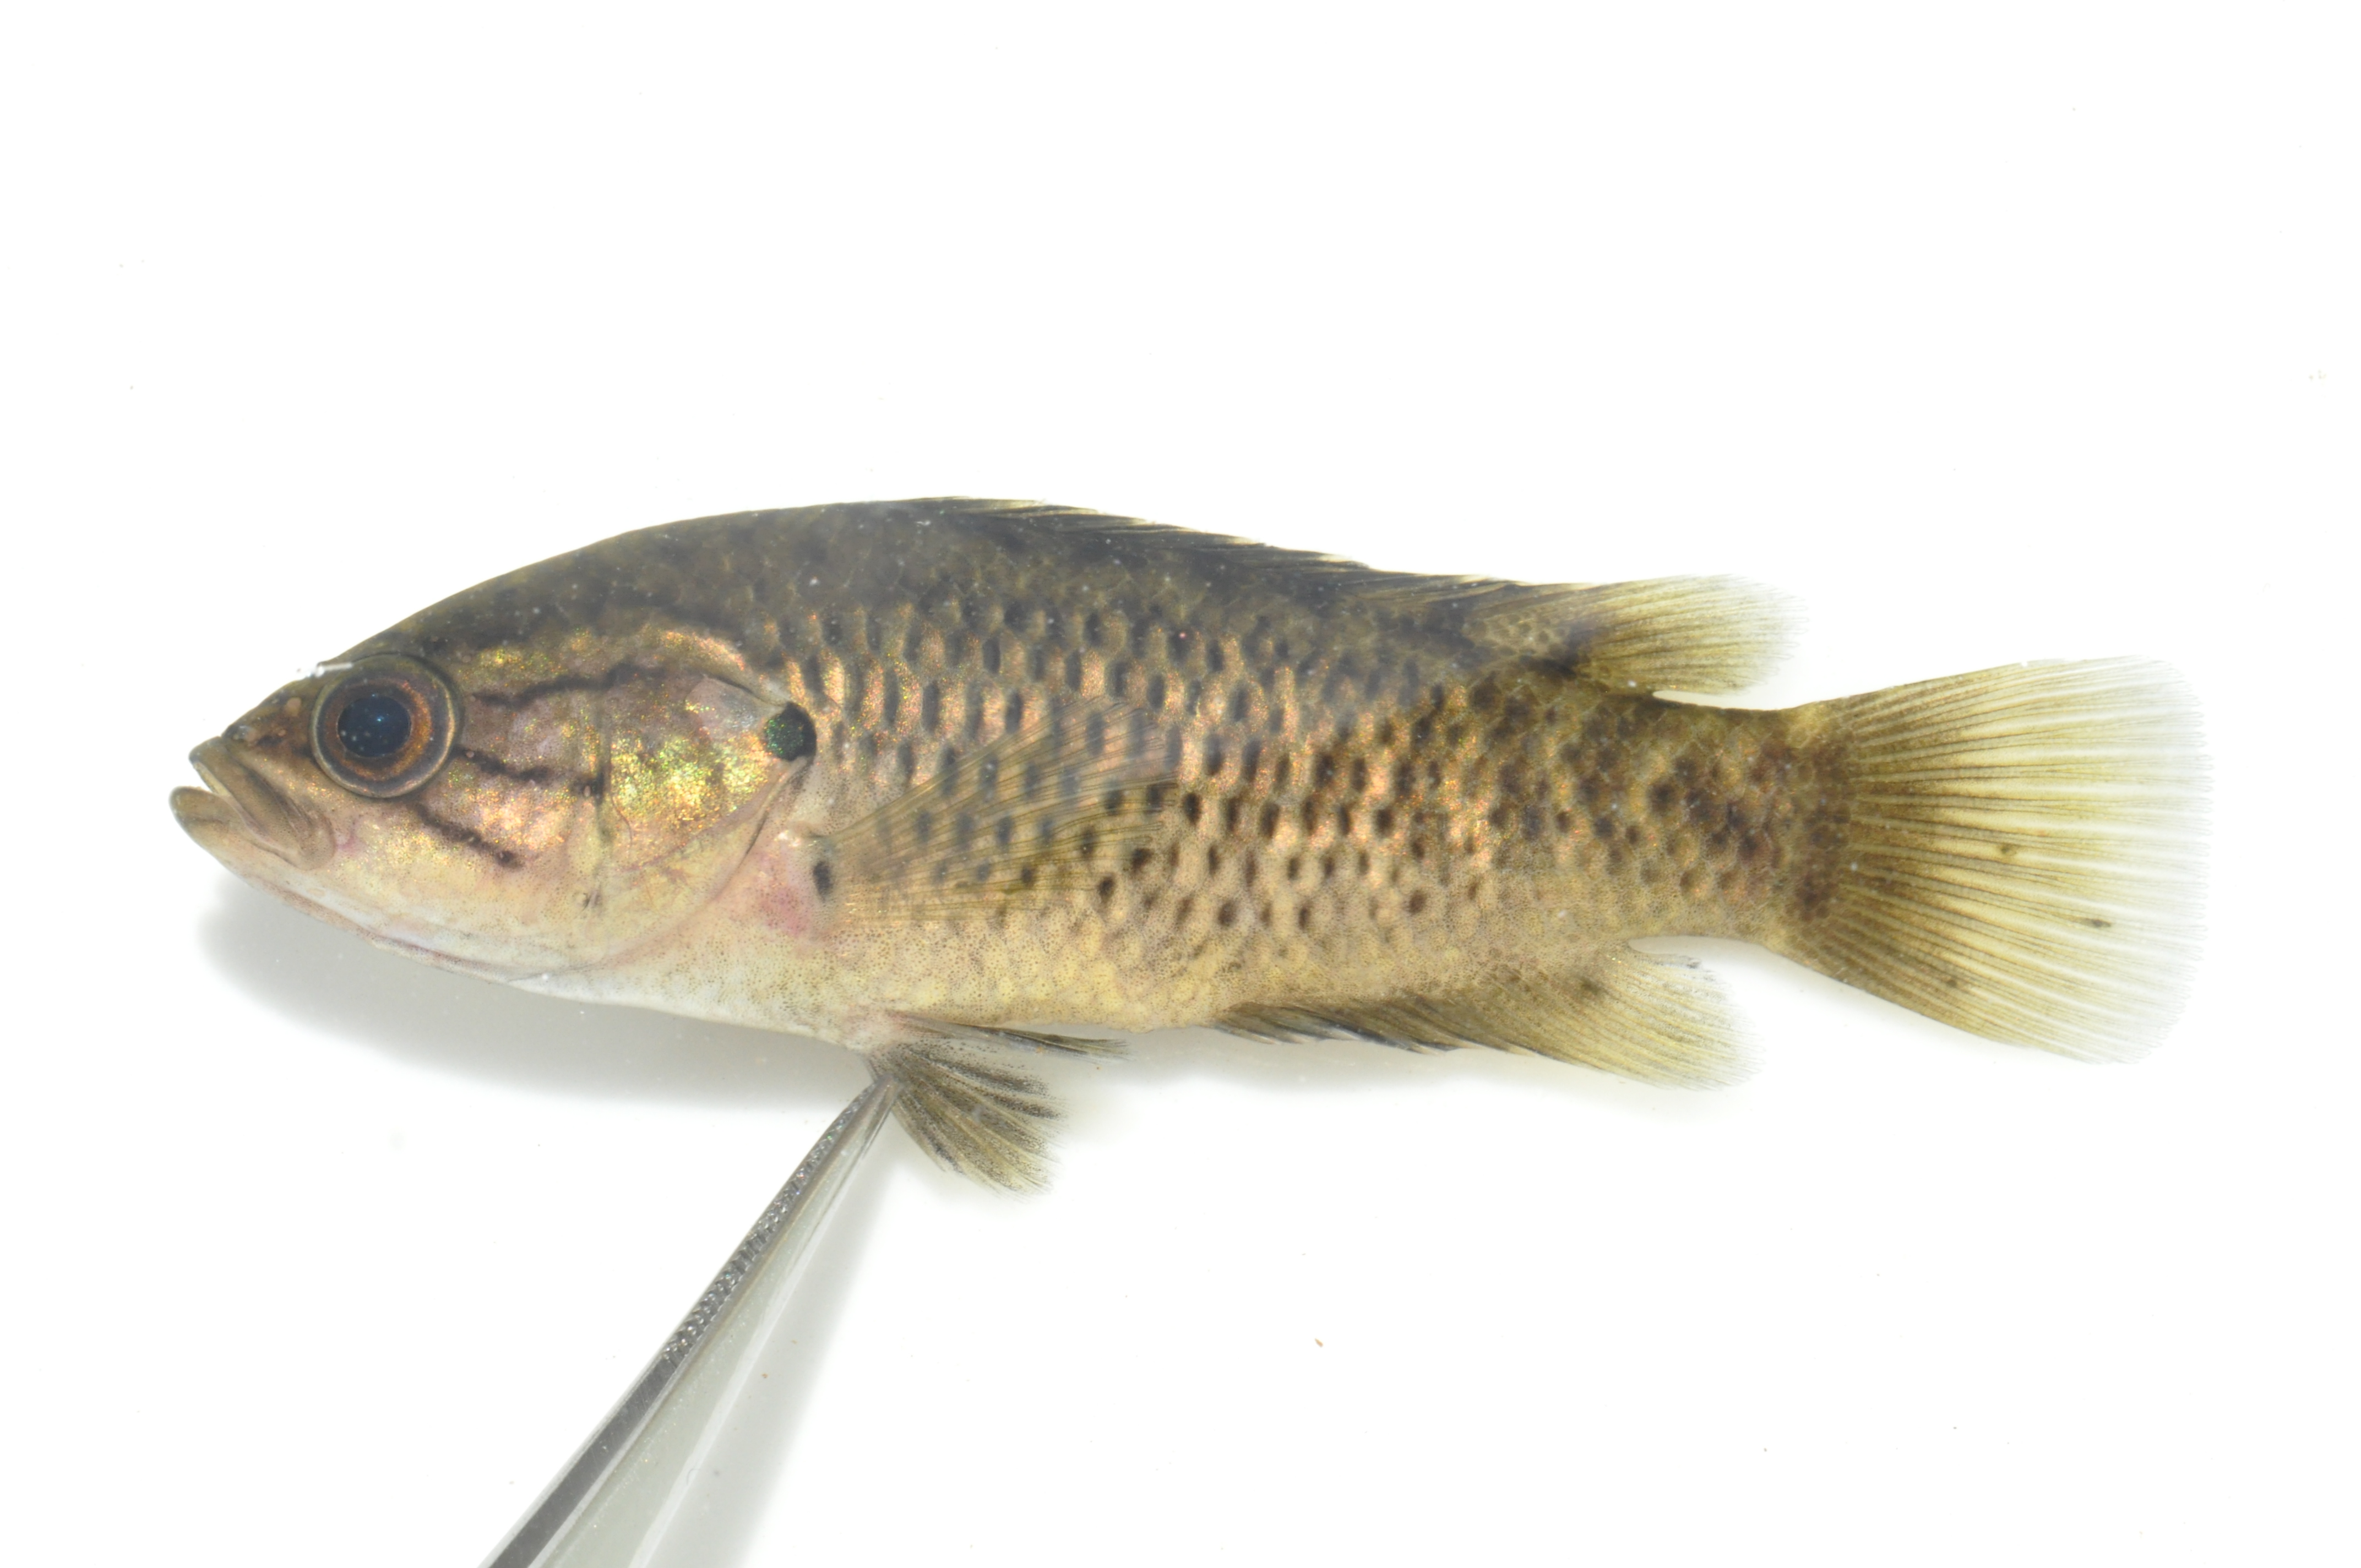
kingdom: Animalia
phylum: Chordata
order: Perciformes
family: Anabantidae
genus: Sandelia
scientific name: Sandelia capensis
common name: Cape kurper
